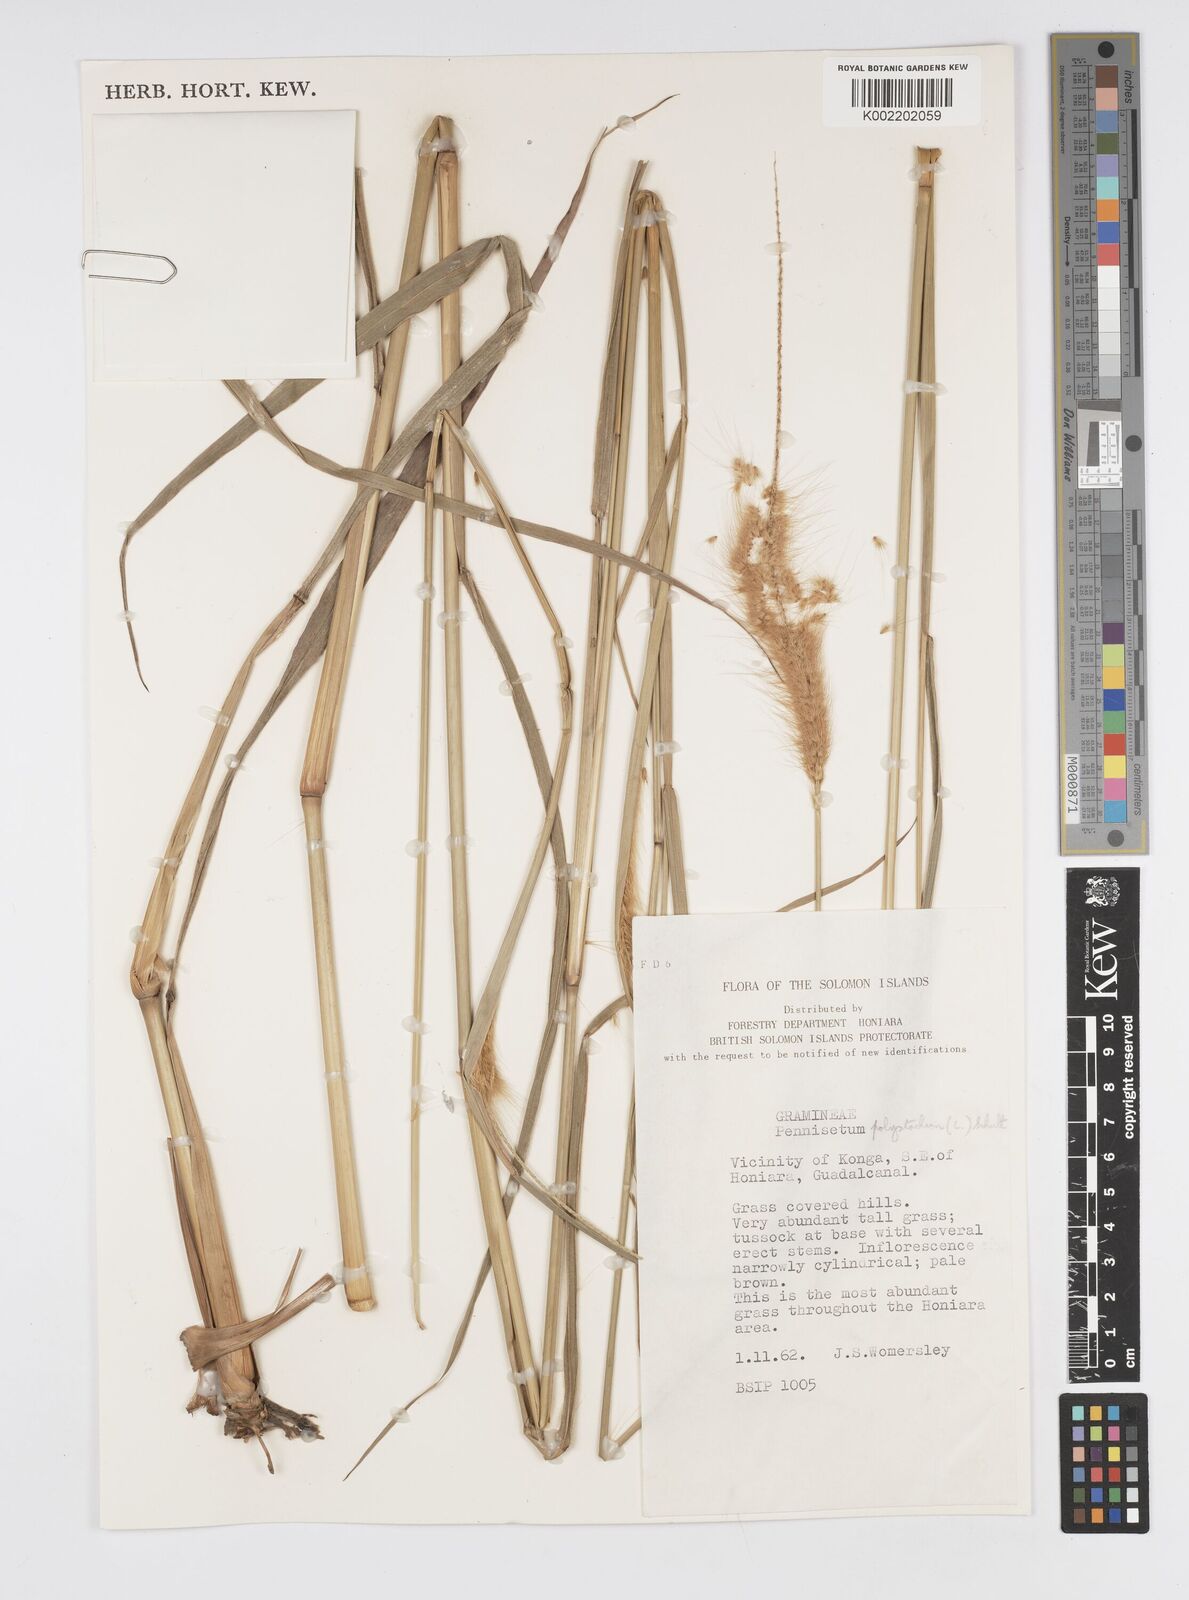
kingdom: Plantae
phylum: Tracheophyta
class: Liliopsida
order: Poales
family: Poaceae
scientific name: Poaceae
